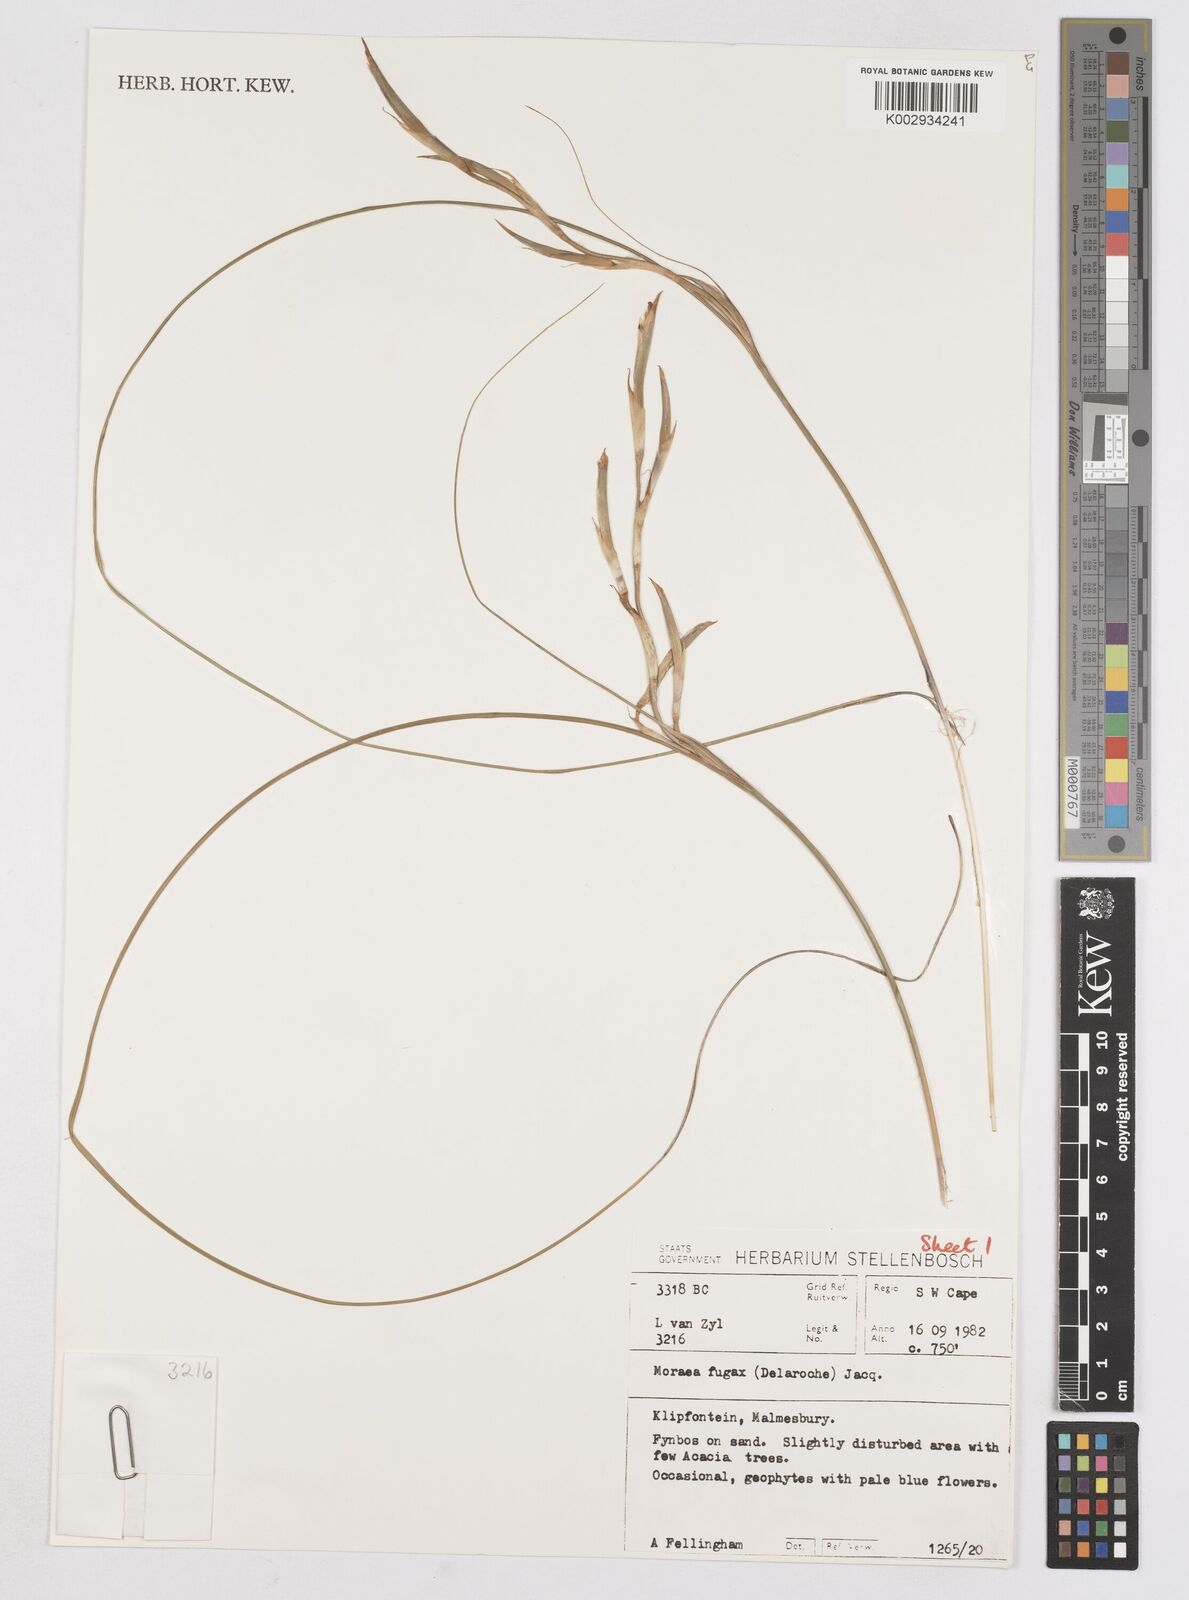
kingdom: Plantae
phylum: Tracheophyta
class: Liliopsida
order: Asparagales
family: Iridaceae
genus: Moraea
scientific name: Moraea fugax
